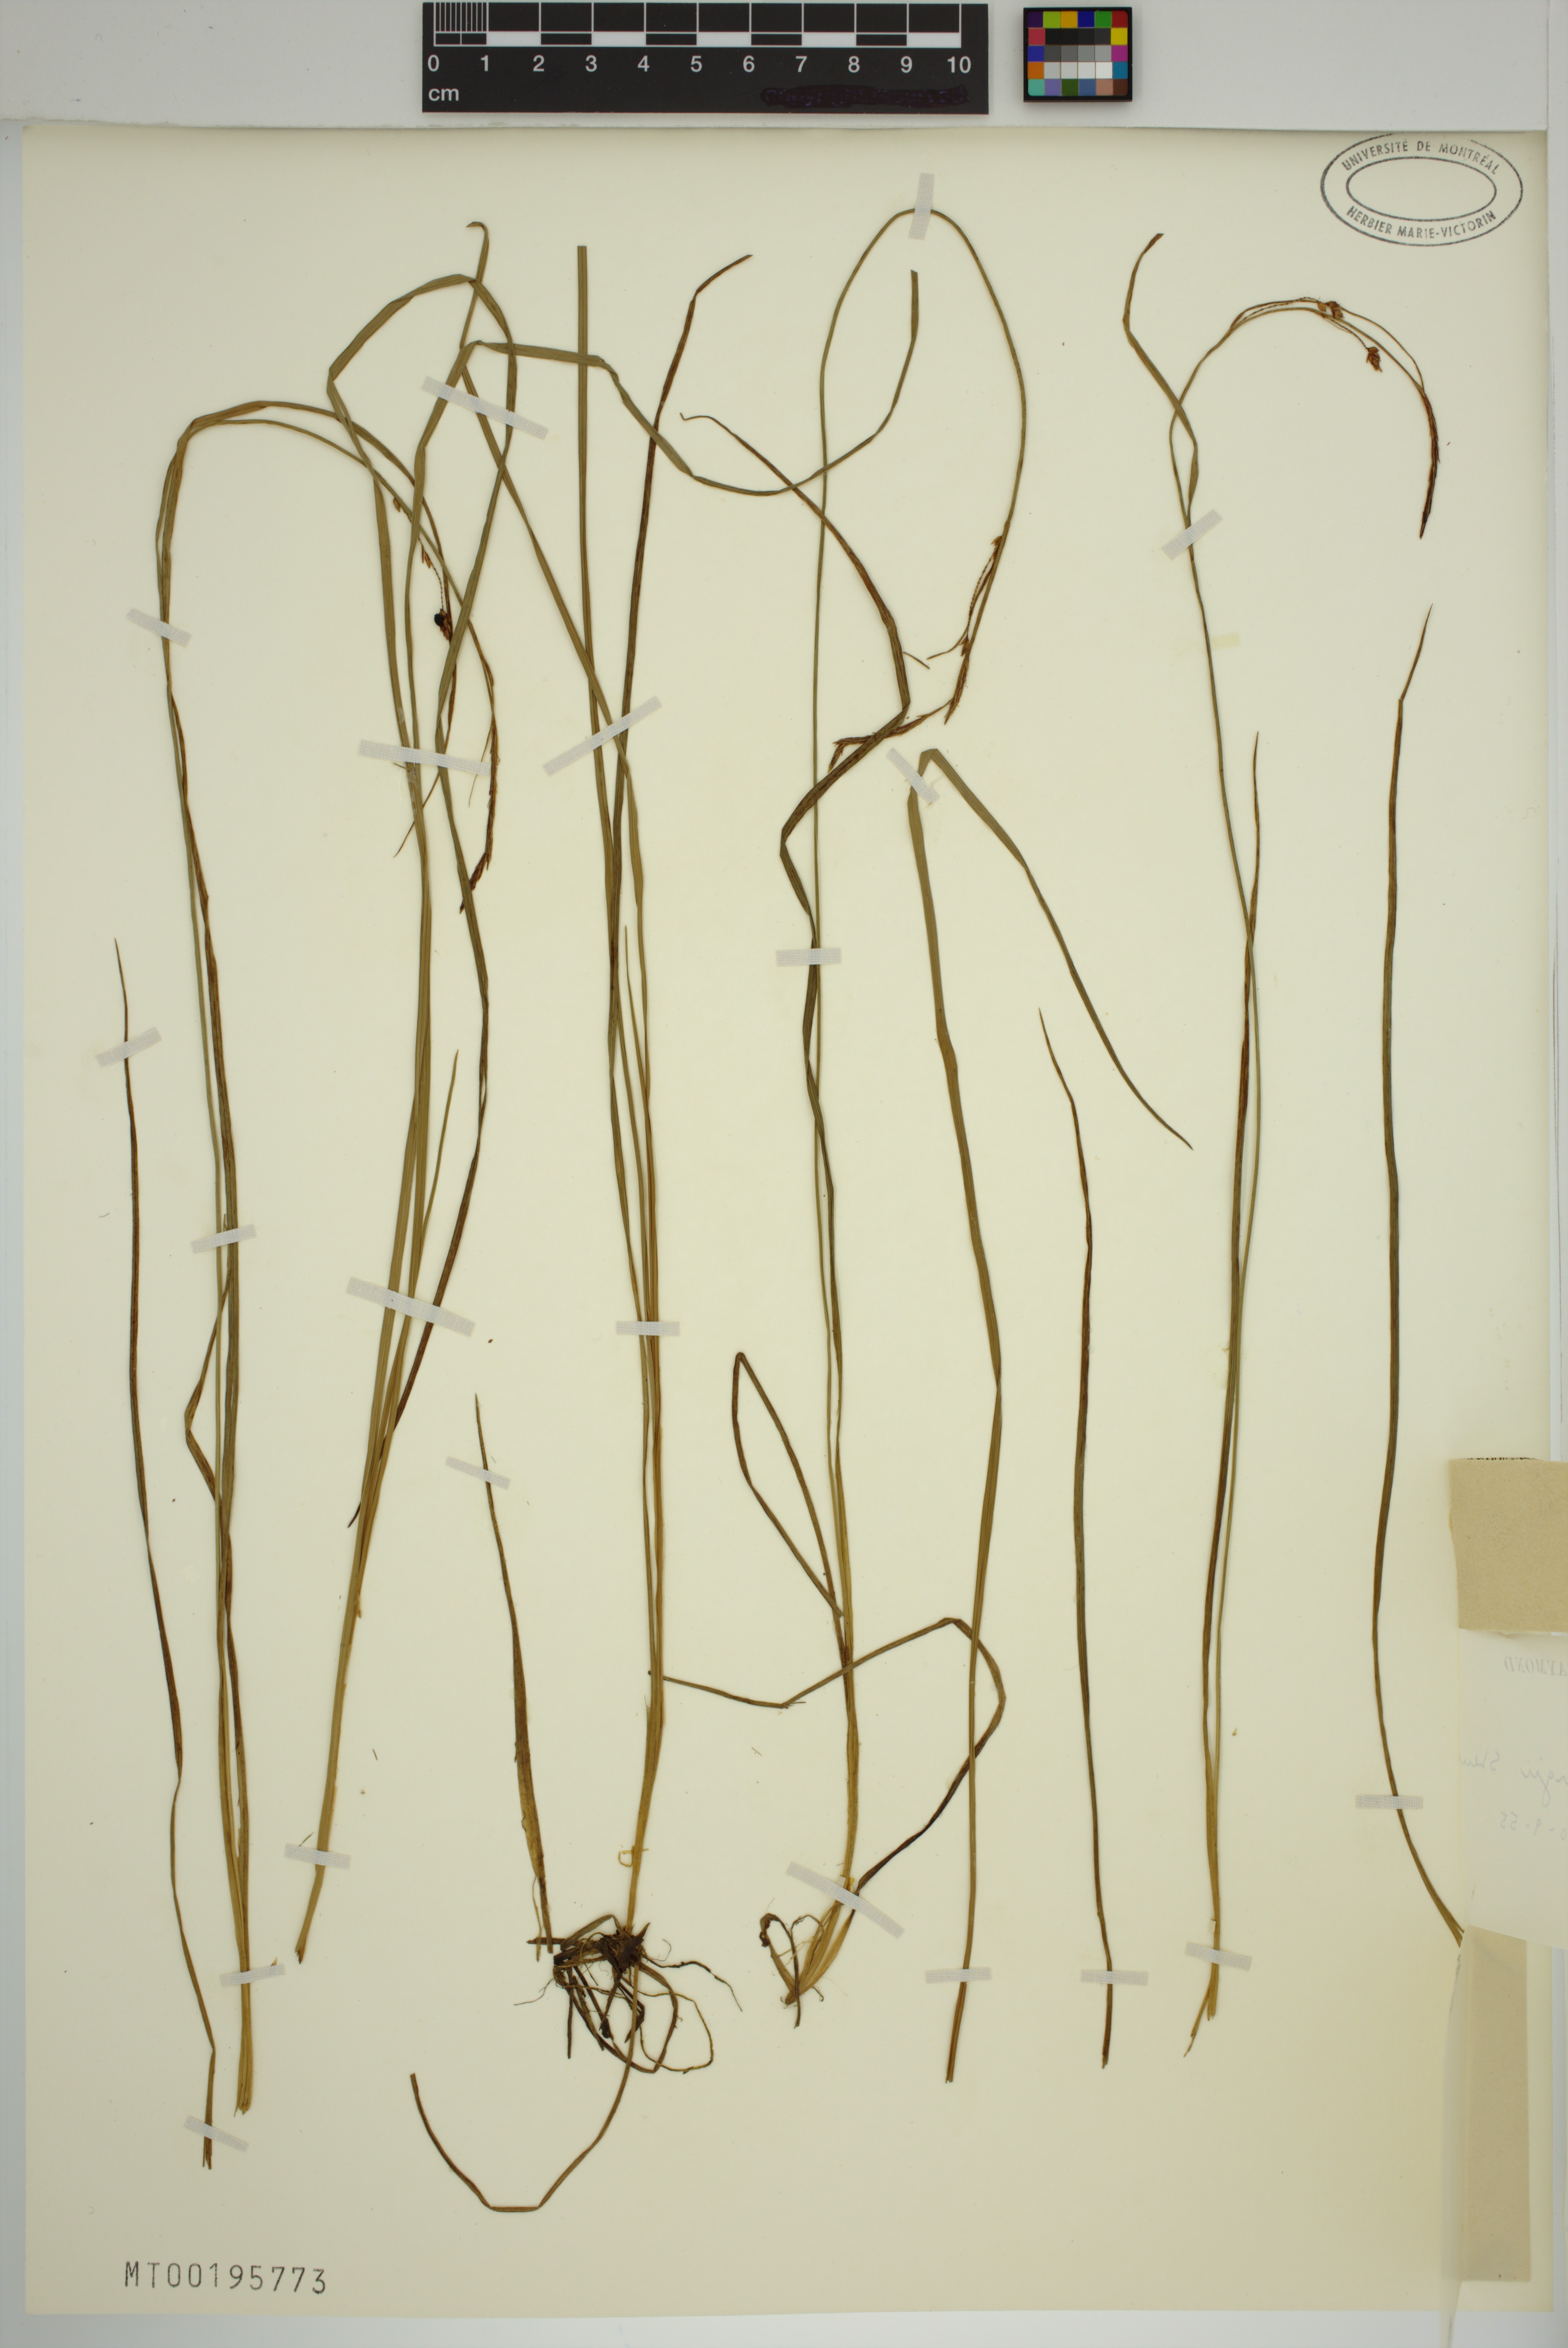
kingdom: Plantae
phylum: Tracheophyta
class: Liliopsida
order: Poales
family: Cyperaceae
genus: Carex
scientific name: Carex thunbergii
